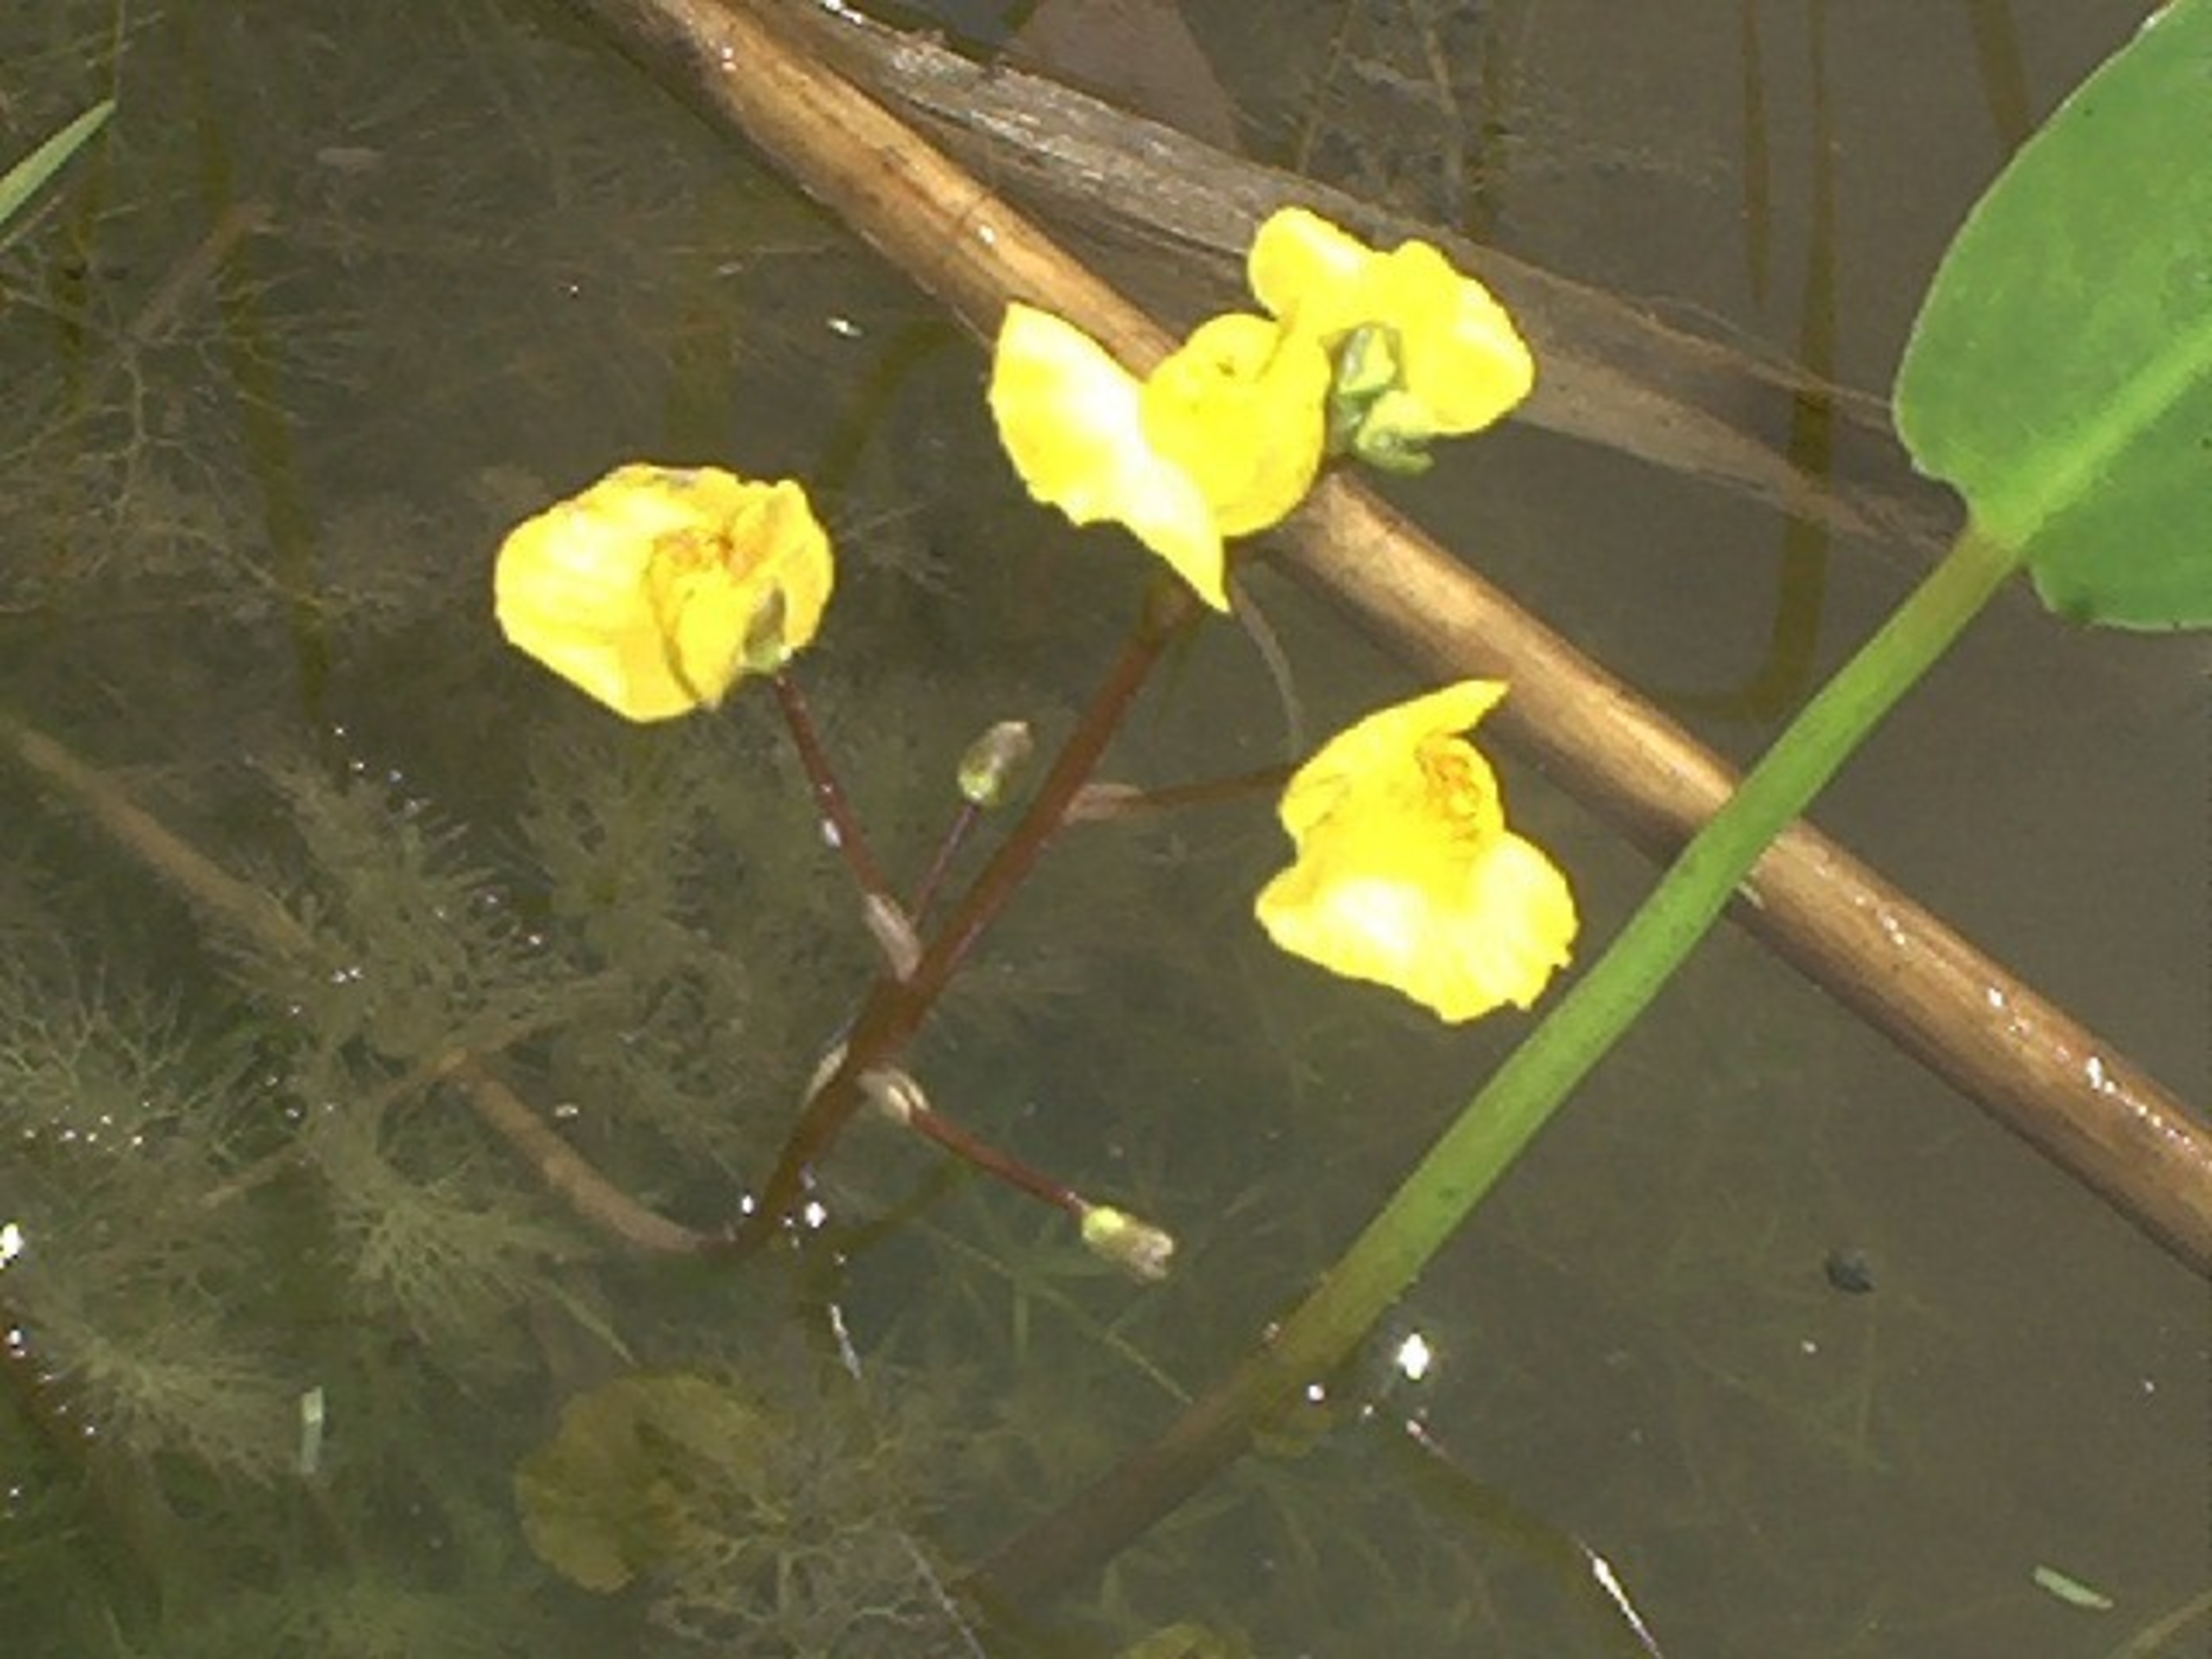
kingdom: Plantae
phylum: Tracheophyta
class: Magnoliopsida
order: Lamiales
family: Lentibulariaceae
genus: Utricularia
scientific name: Utricularia australis
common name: Slank blærerod
